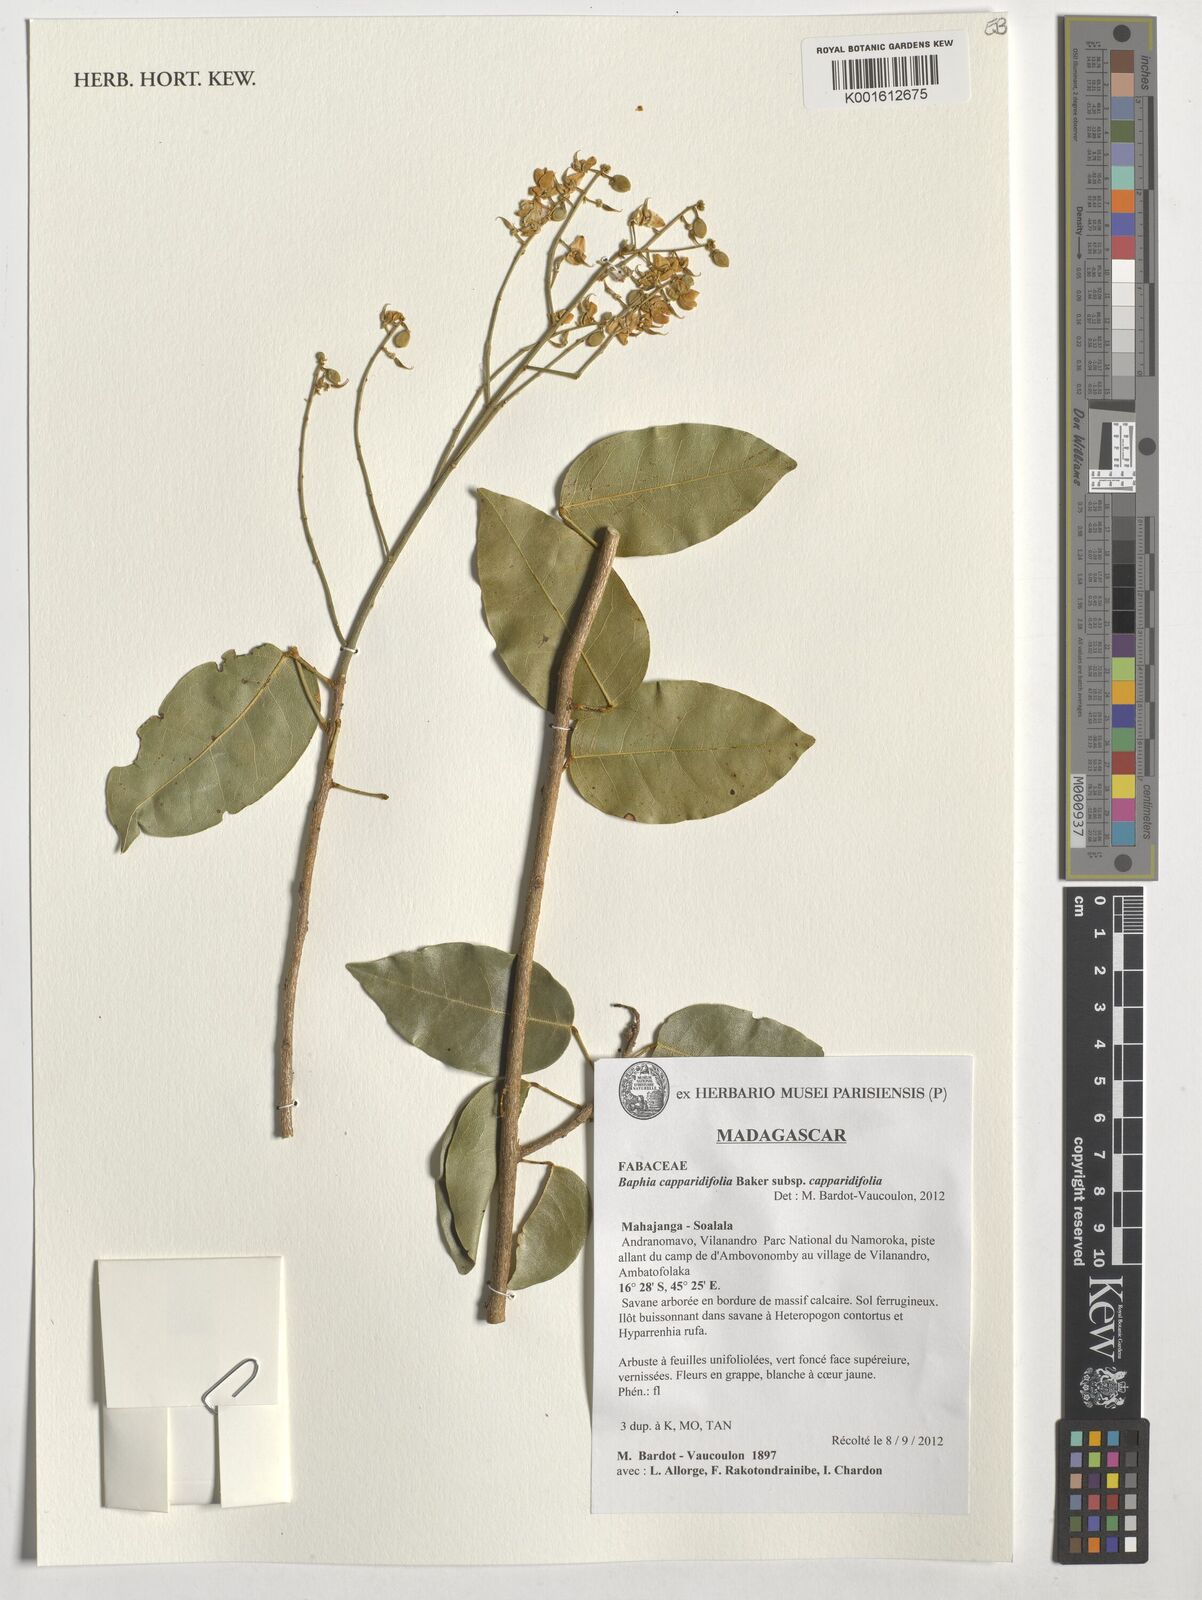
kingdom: Plantae
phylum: Tracheophyta
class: Magnoliopsida
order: Fabales
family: Fabaceae
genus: Baphia
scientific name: Baphia capparidifolia
